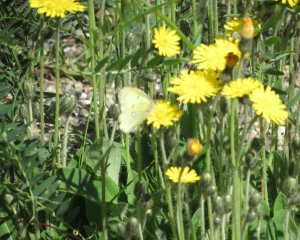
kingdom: Animalia
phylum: Arthropoda
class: Insecta
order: Lepidoptera
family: Pieridae
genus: Colias
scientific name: Colias philodice
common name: Clouded Sulphur
